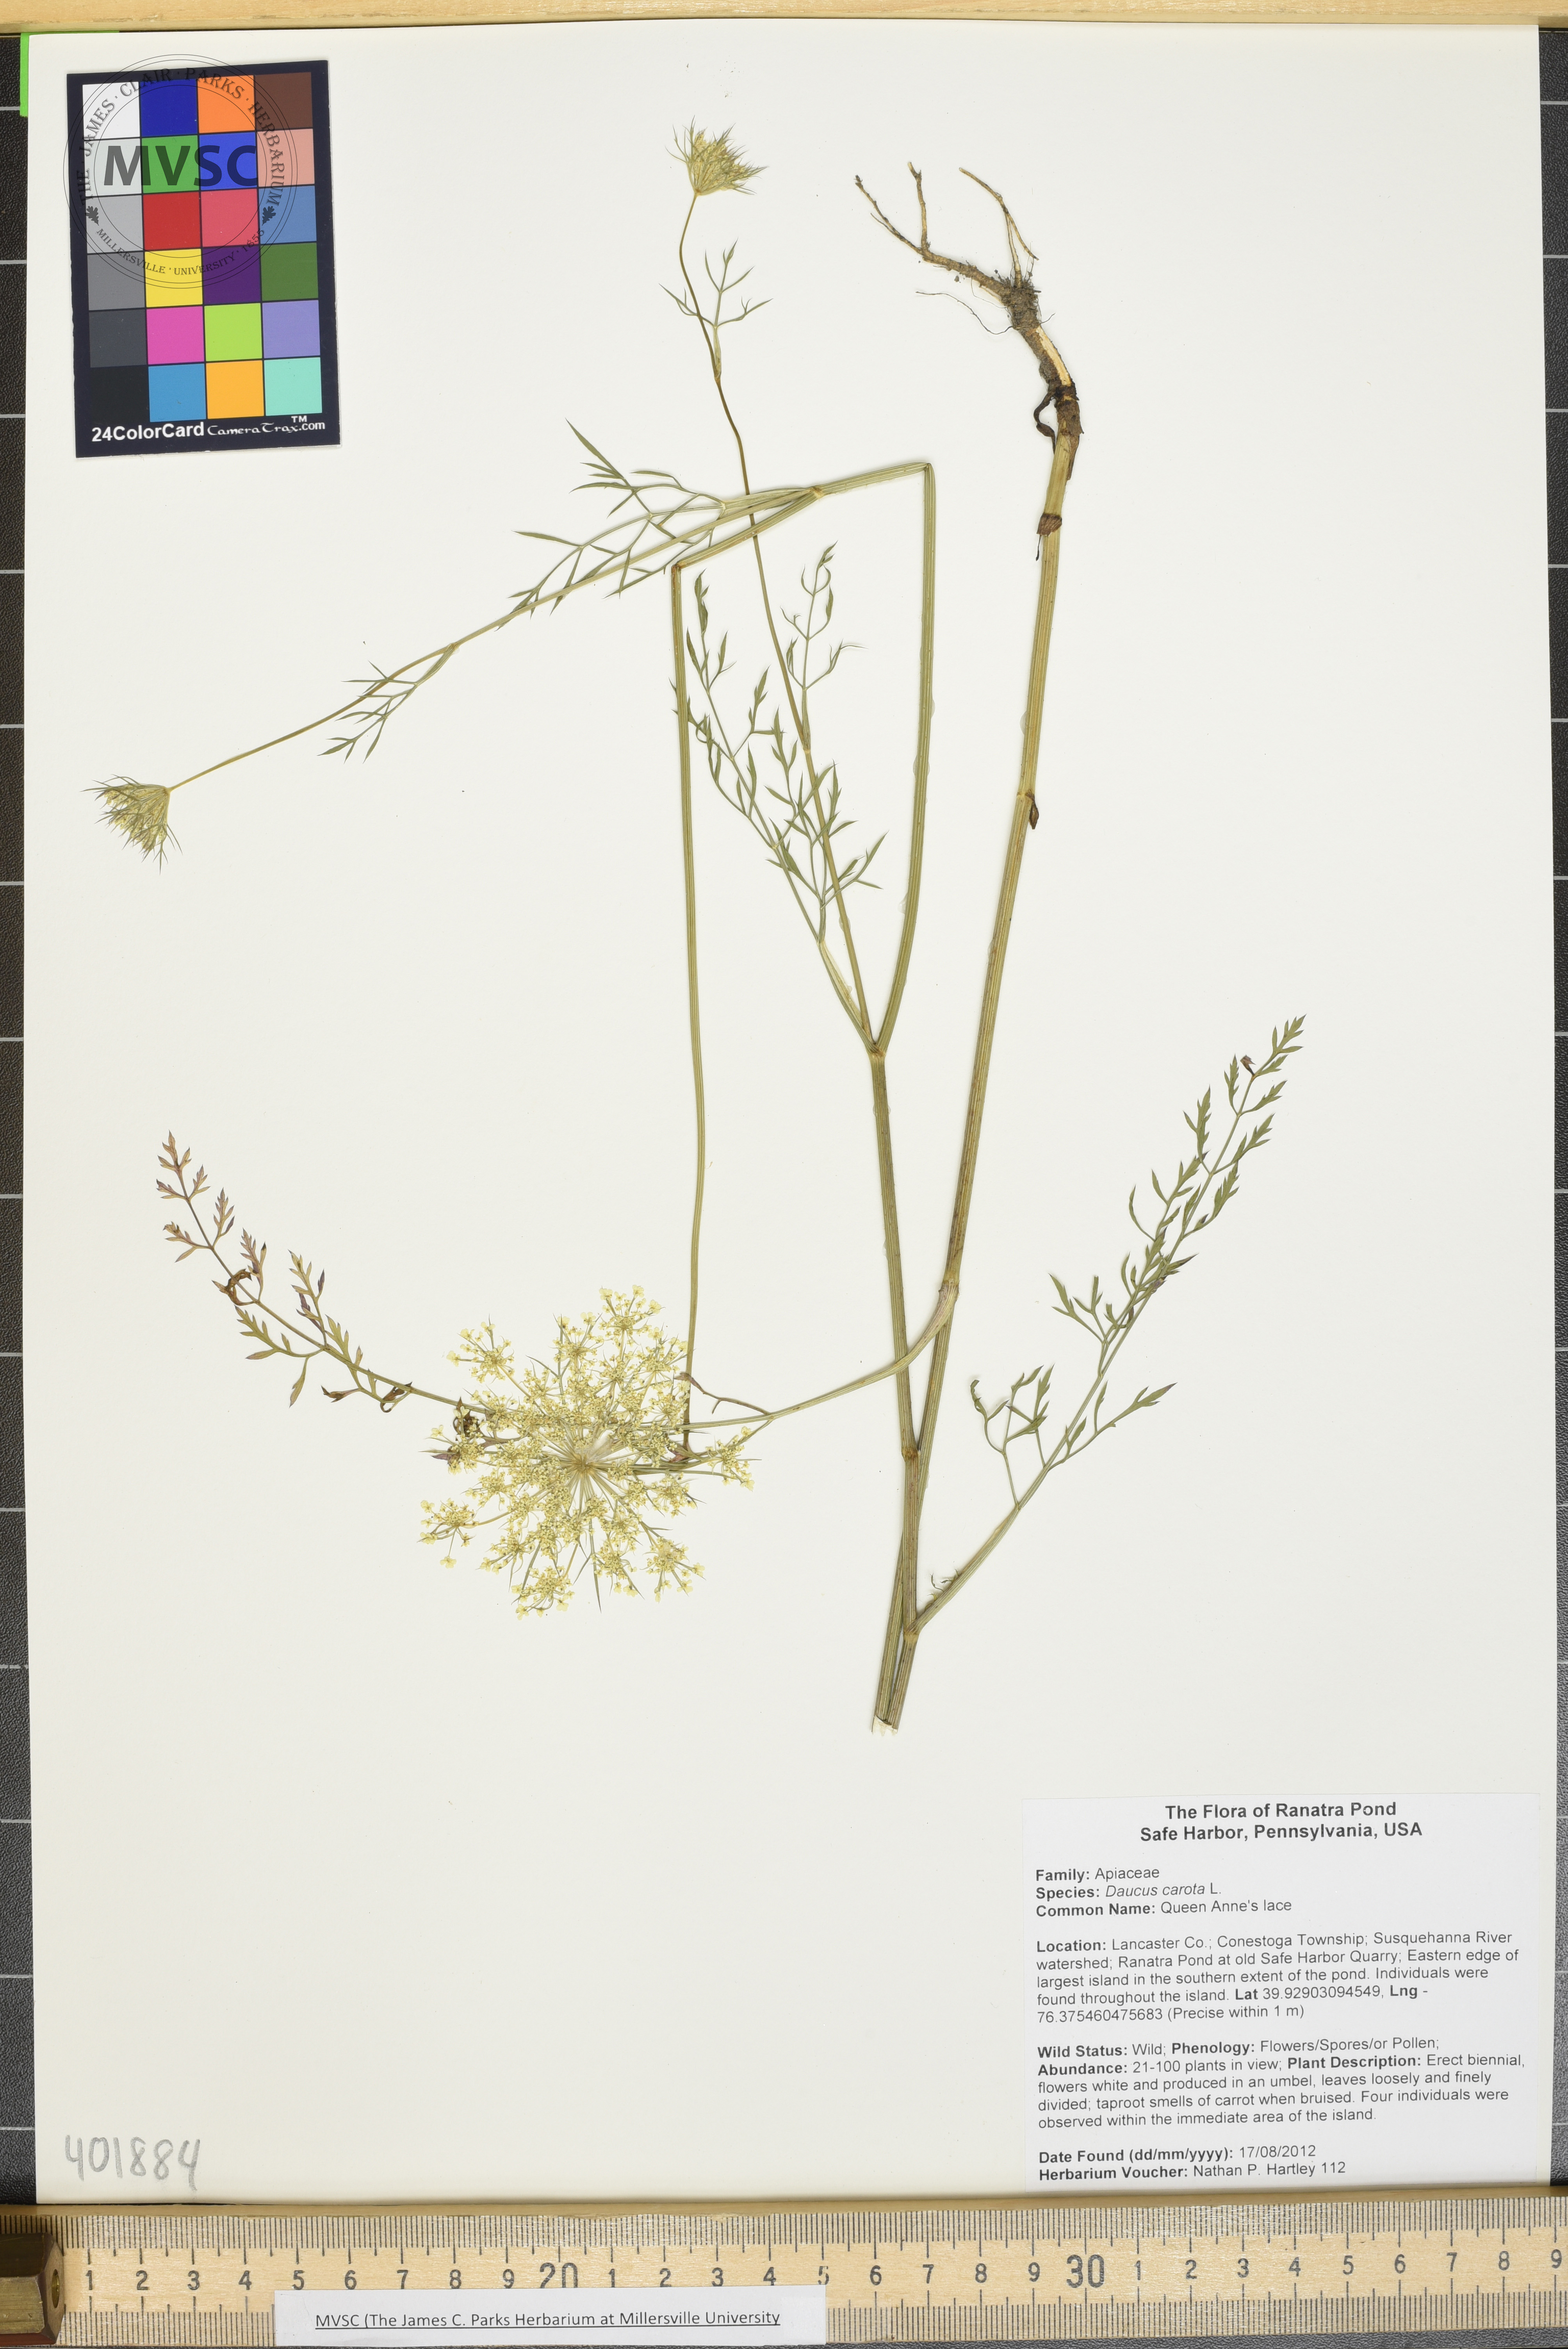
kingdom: Plantae
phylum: Tracheophyta
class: Magnoliopsida
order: Apiales
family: Apiaceae
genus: Daucus
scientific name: Daucus carota
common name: Queen Anne's lace
